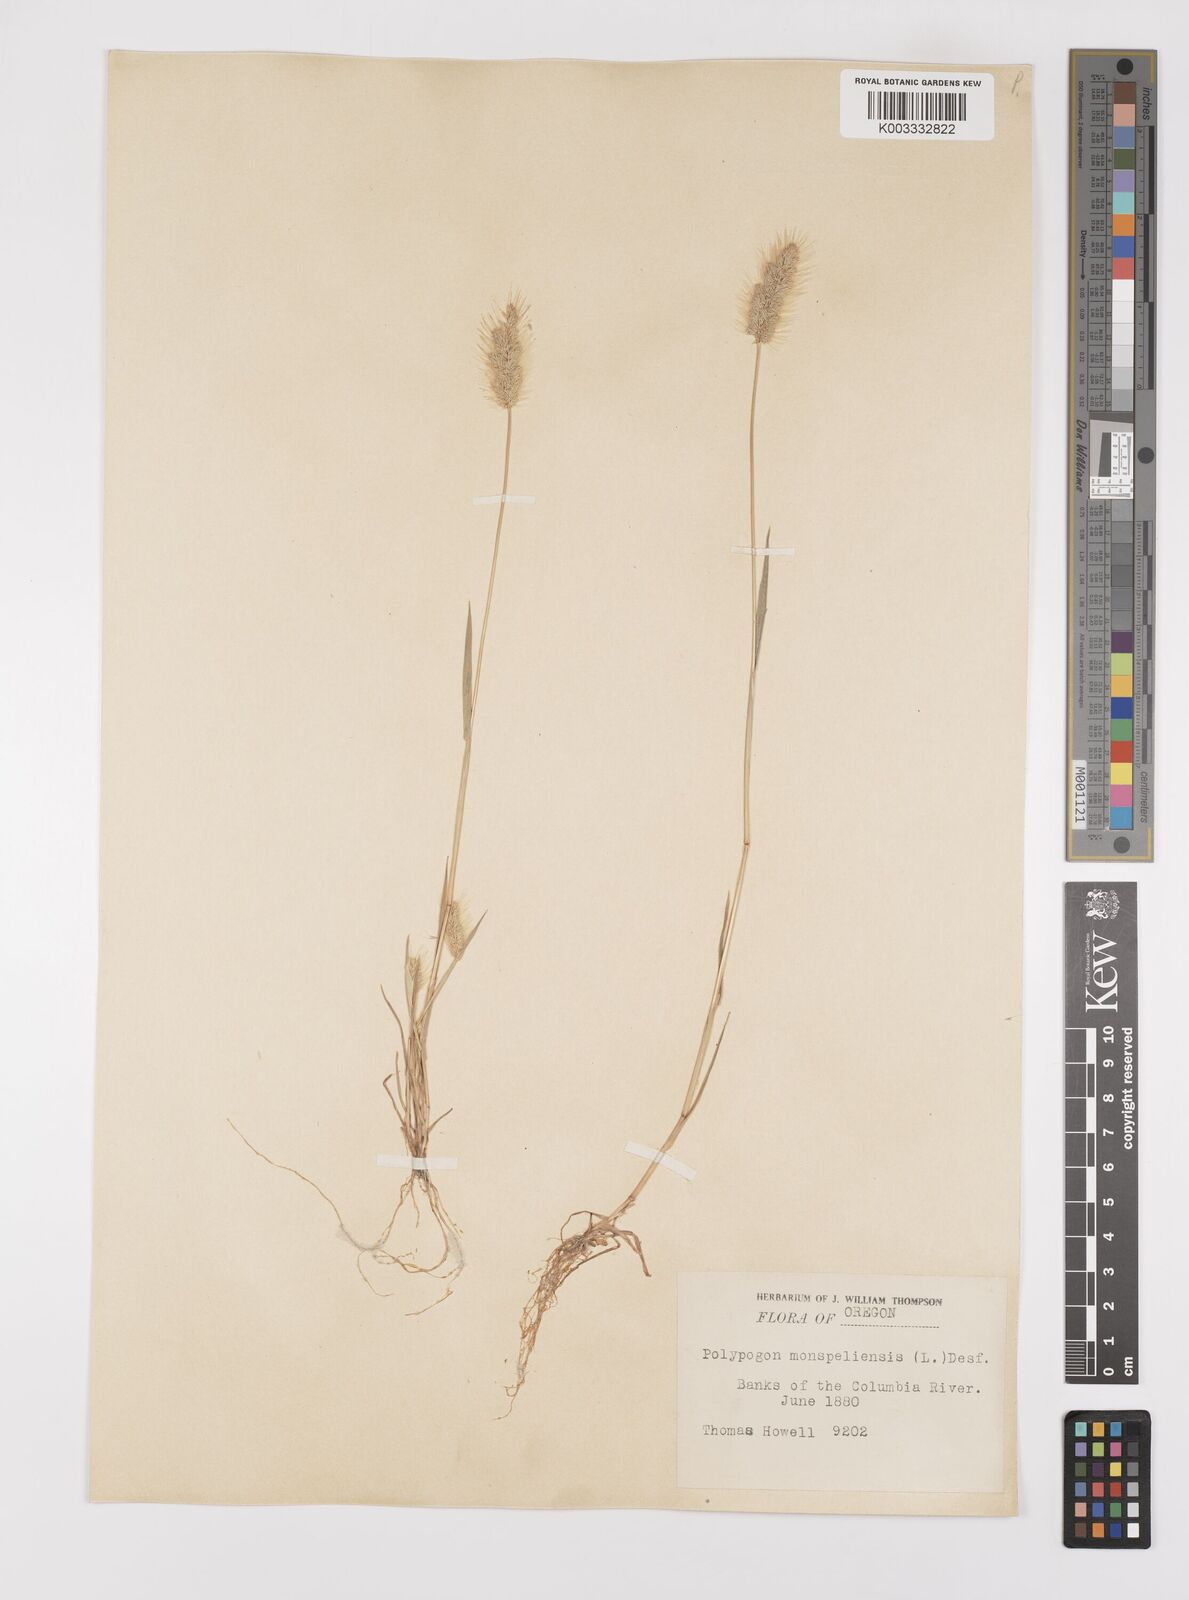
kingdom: Plantae
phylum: Tracheophyta
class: Liliopsida
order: Poales
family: Poaceae
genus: Polypogon
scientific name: Polypogon monspeliensis
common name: Annual rabbitsfoot grass
